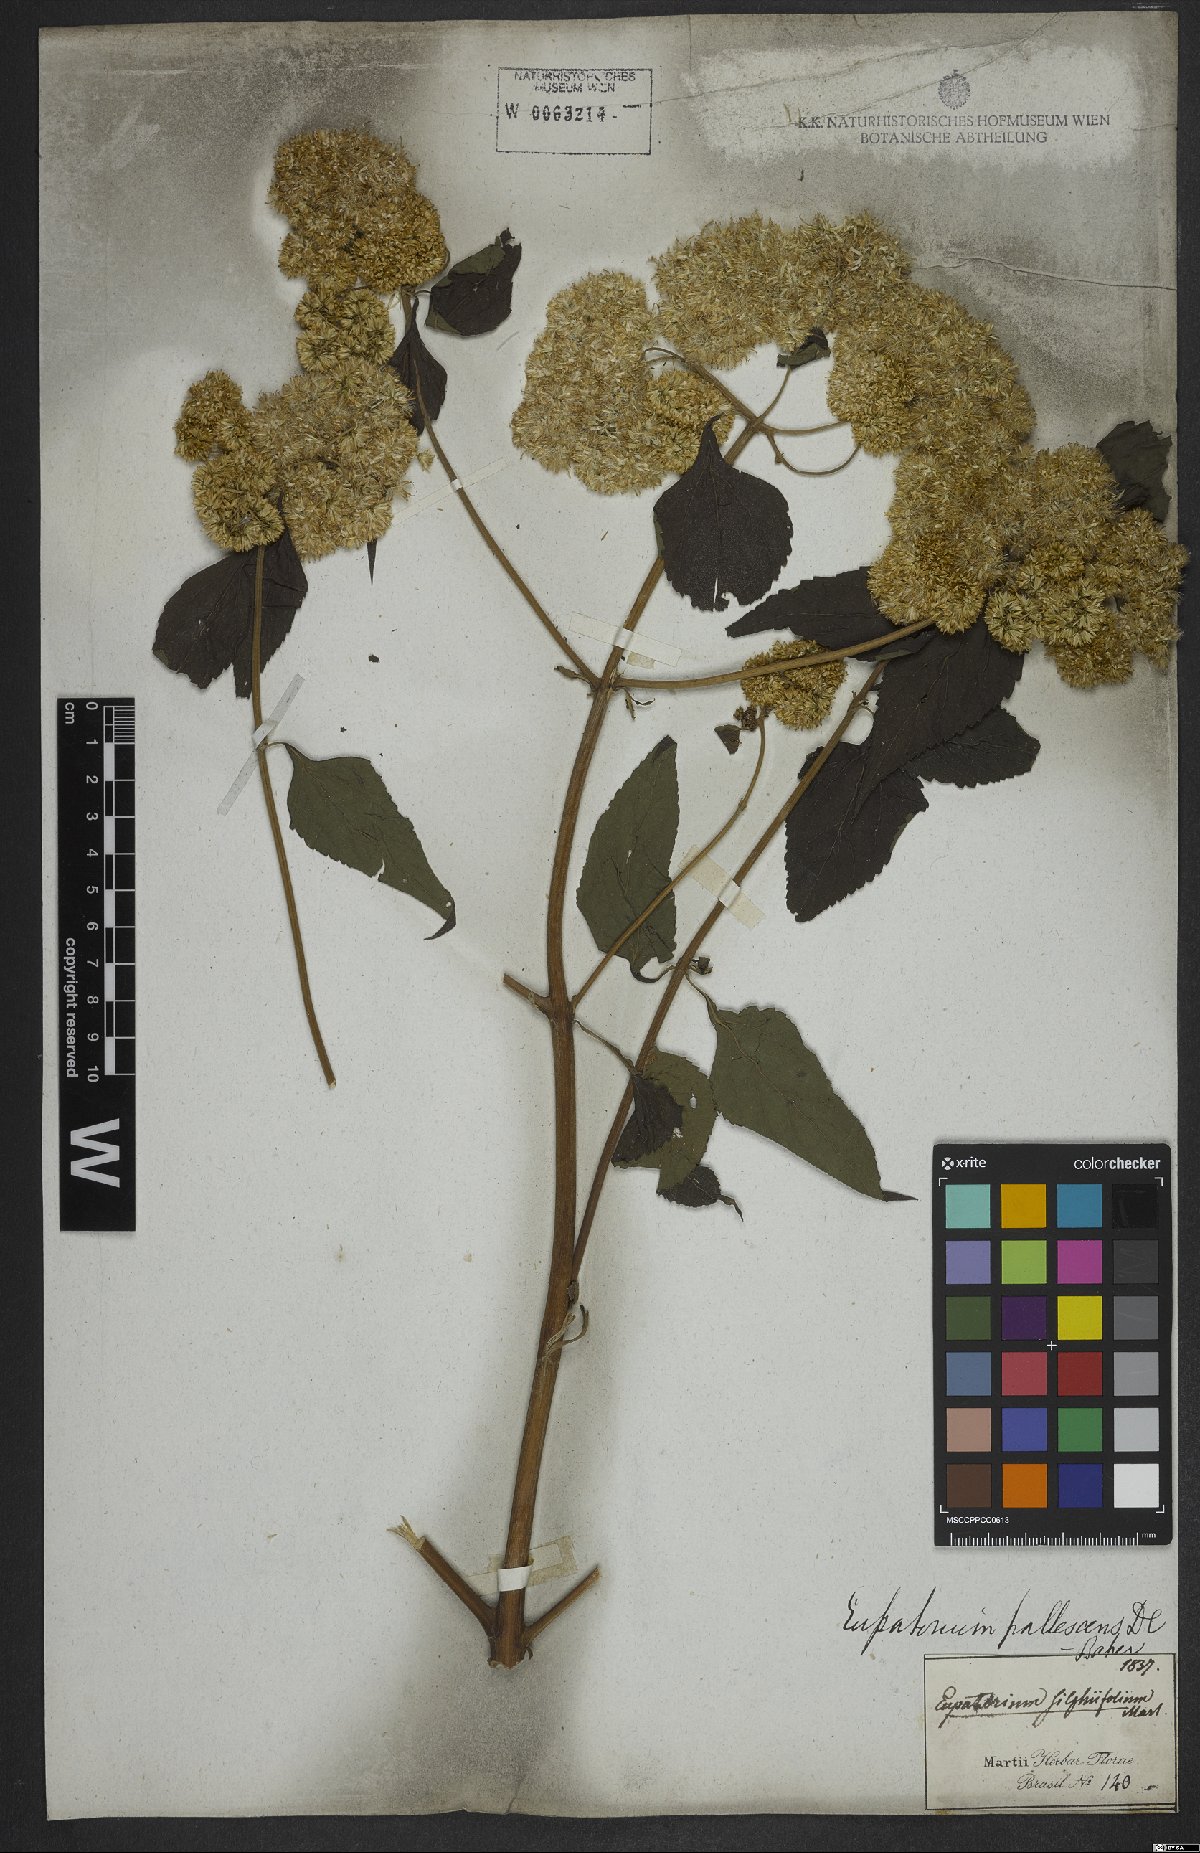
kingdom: Plantae
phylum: Tracheophyta
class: Magnoliopsida
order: Asterales
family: Asteraceae
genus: Austroeupatorium
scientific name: Austroeupatorium inulifolium
